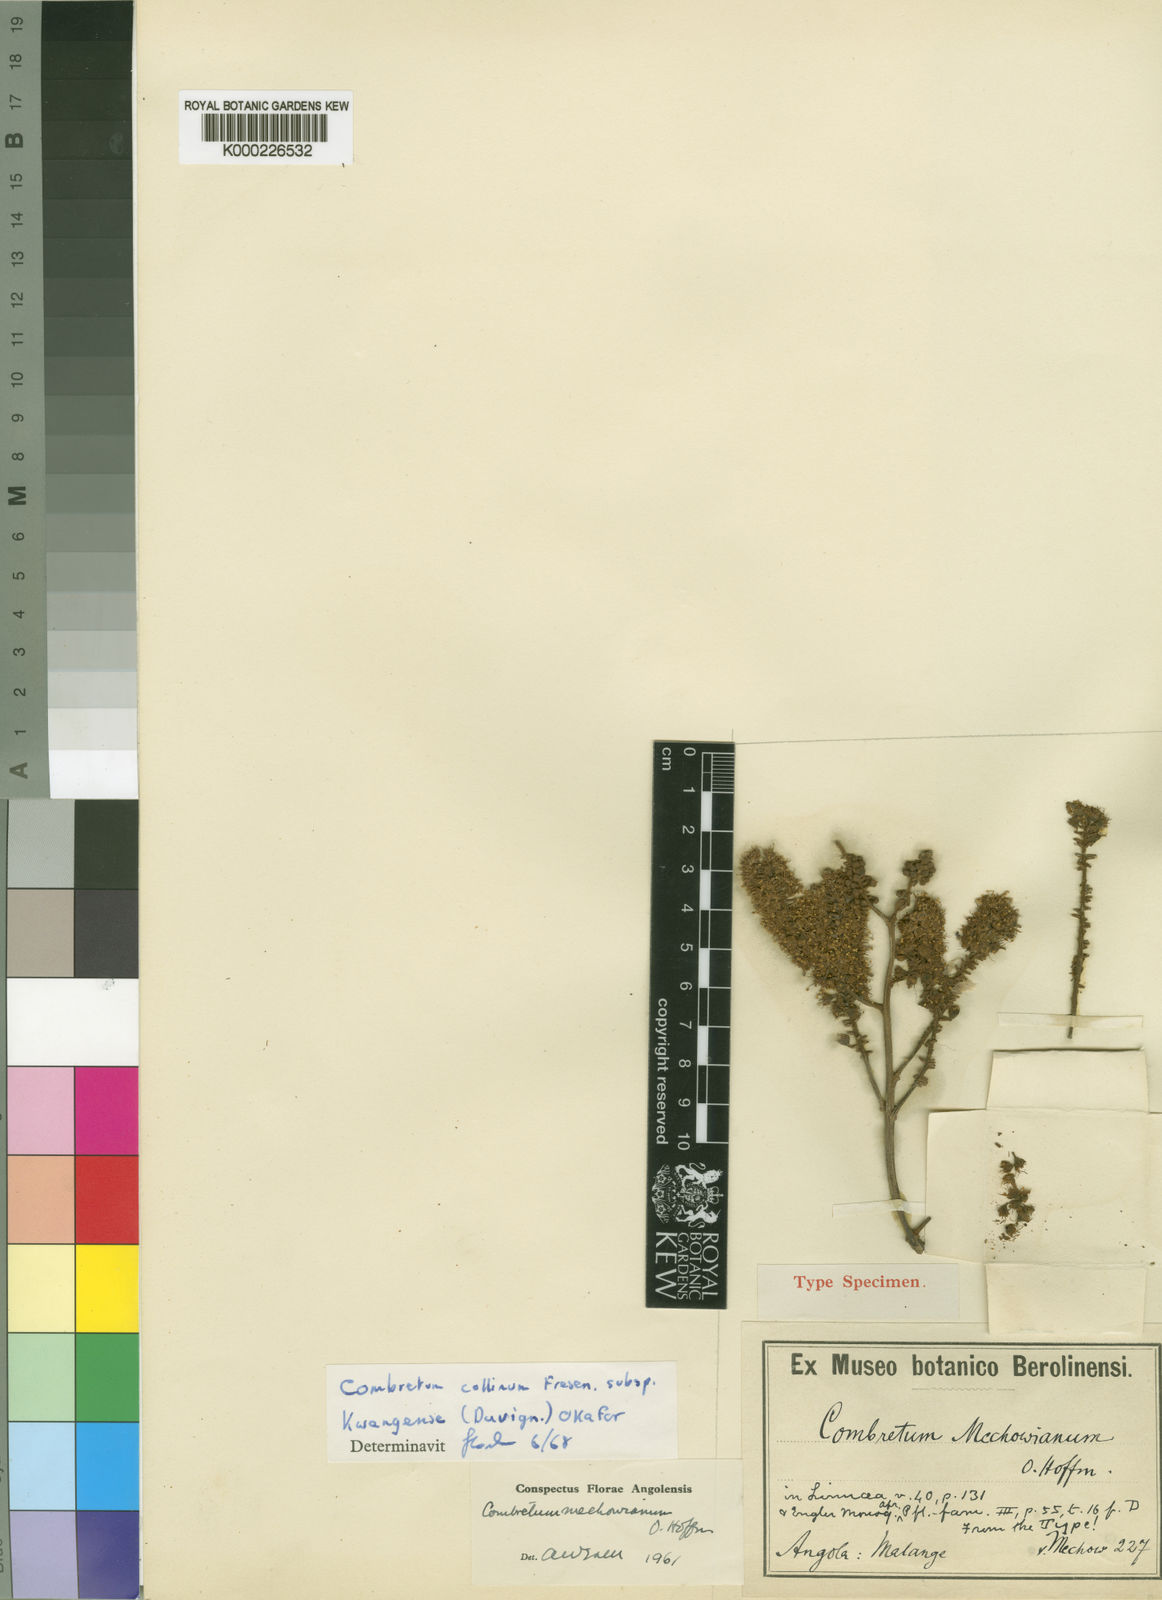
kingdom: Plantae
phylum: Tracheophyta
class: Magnoliopsida
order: Myrtales
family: Combretaceae
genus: Combretum
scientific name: Combretum collinum
